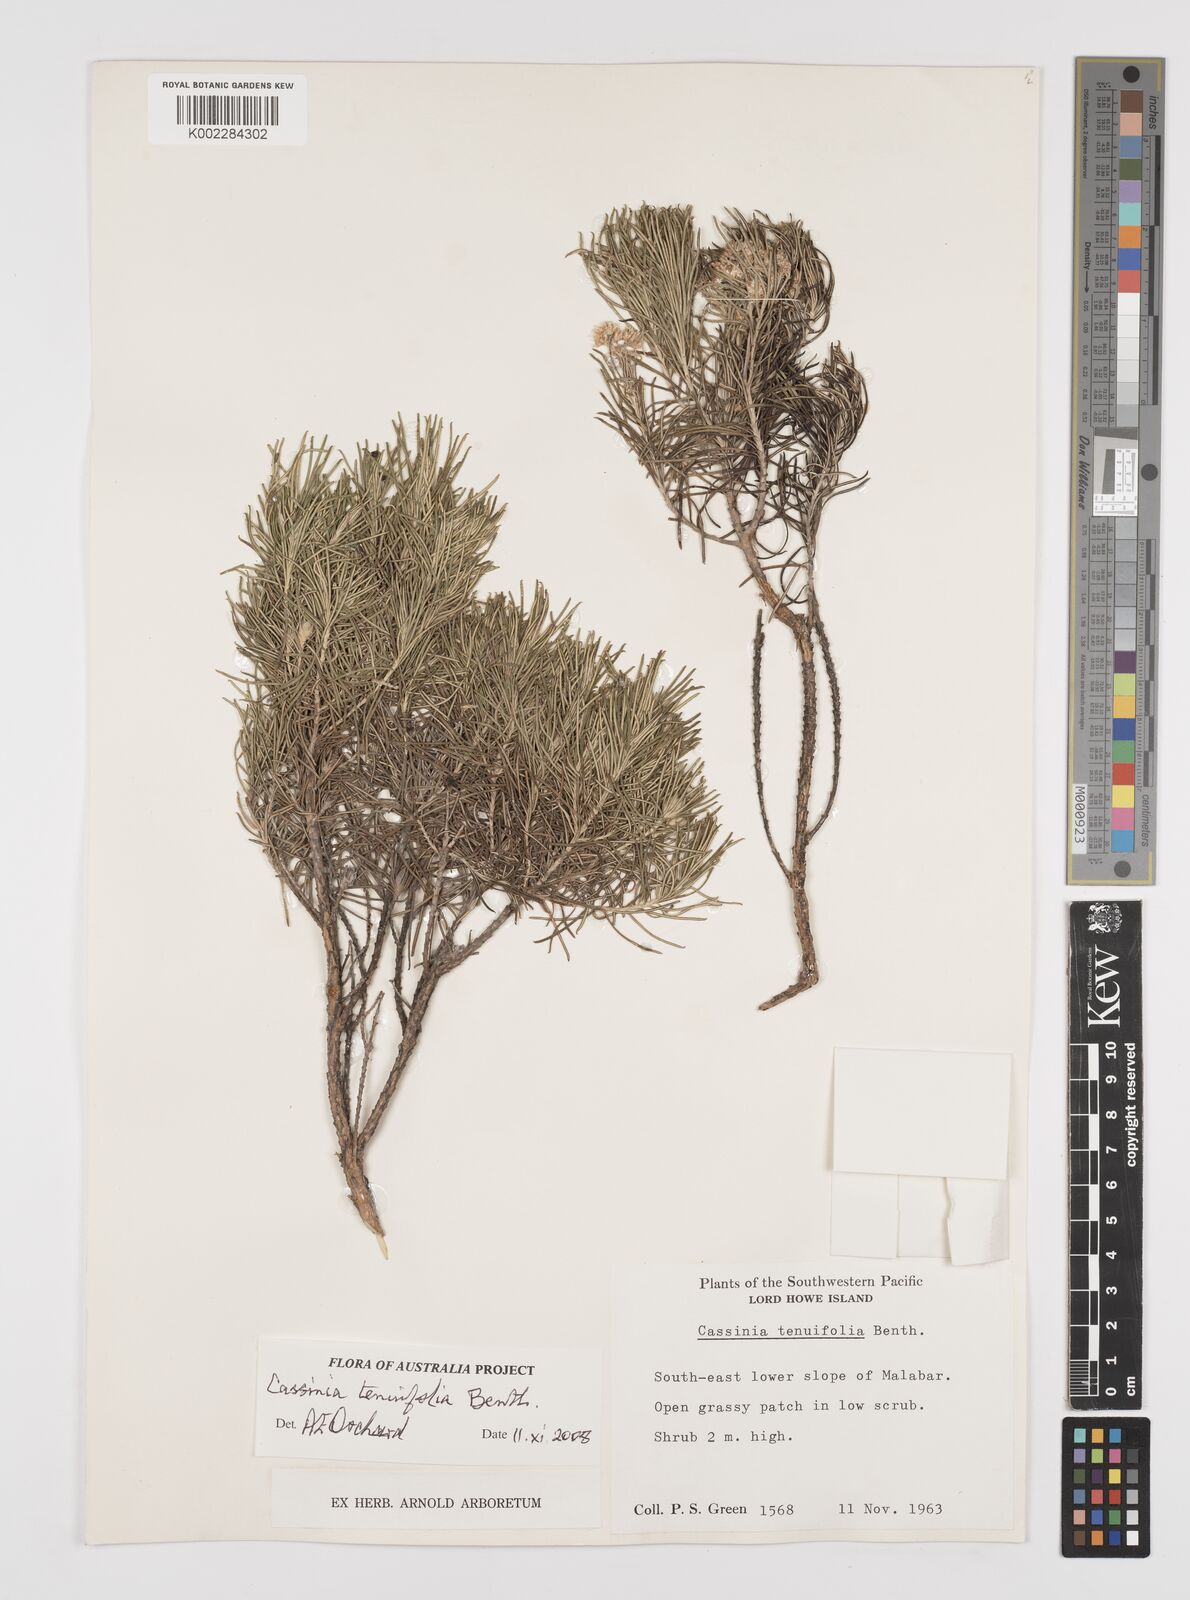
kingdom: Plantae
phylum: Tracheophyta
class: Magnoliopsida
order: Asterales
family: Asteraceae
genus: Cassinia
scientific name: Cassinia tenuifolia
